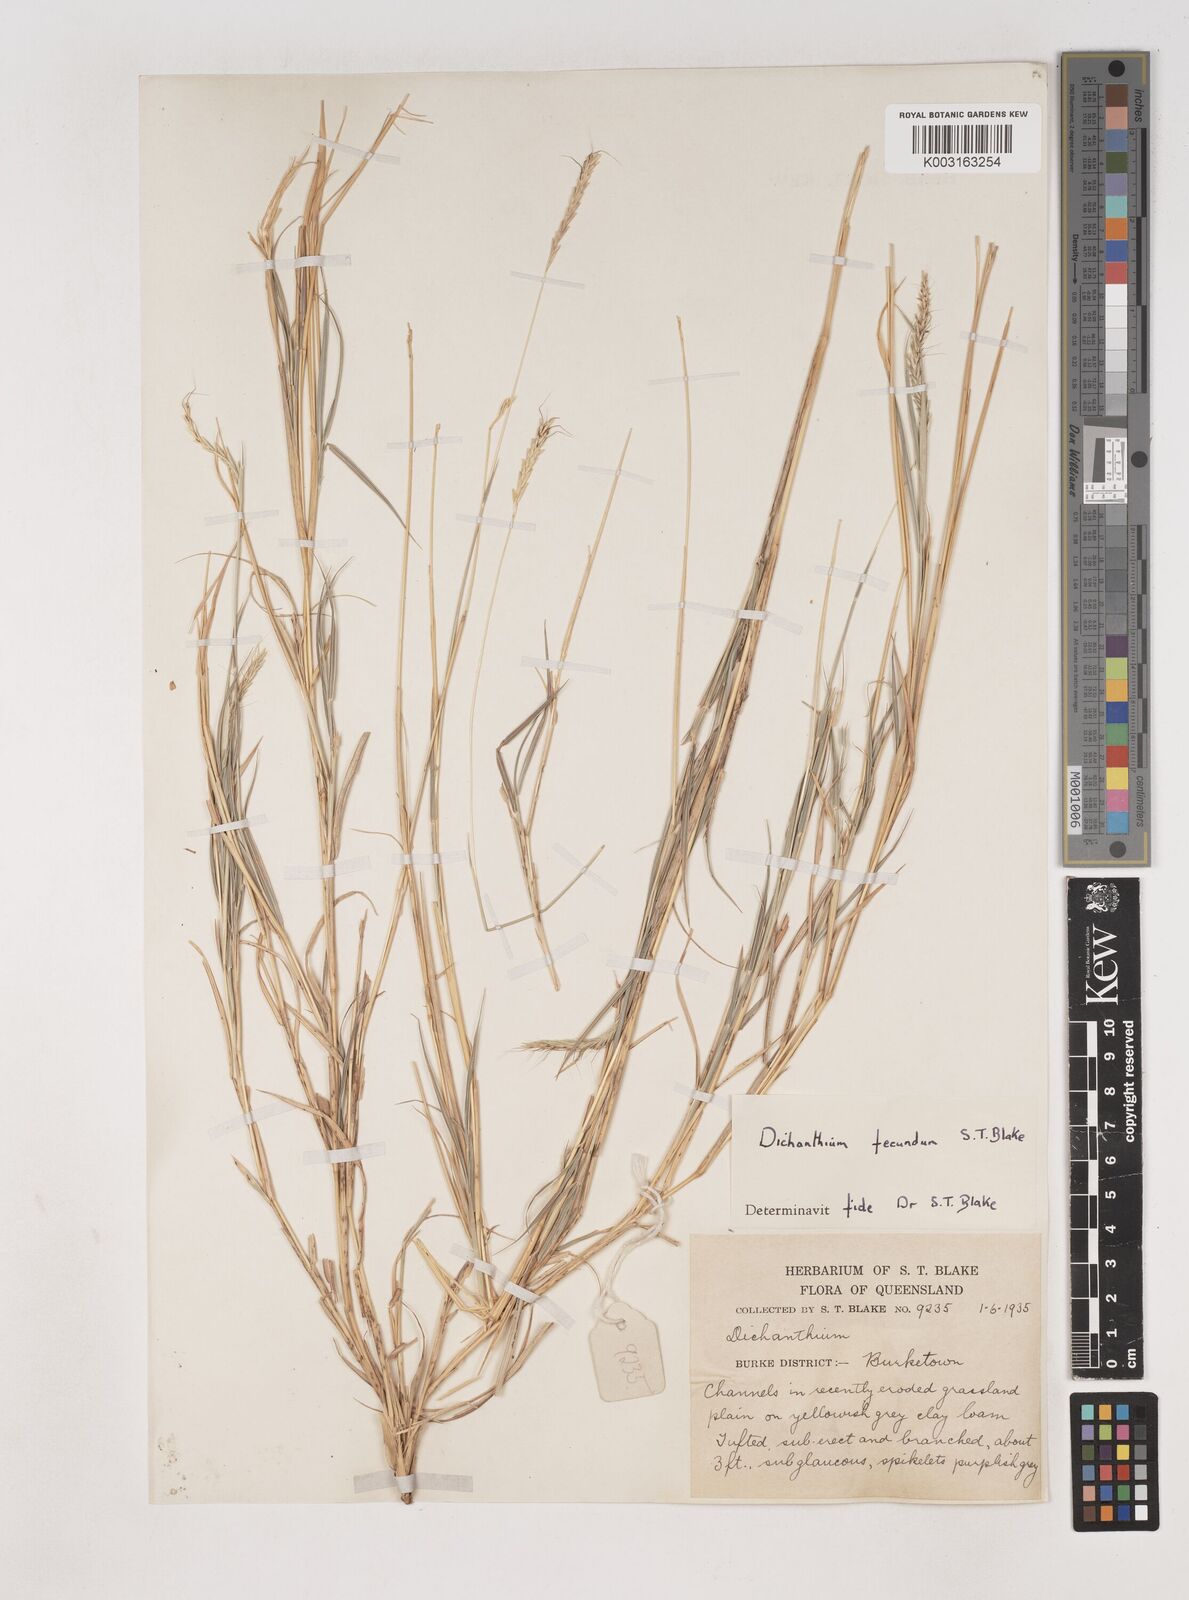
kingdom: Plantae
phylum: Tracheophyta
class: Liliopsida
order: Poales
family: Poaceae
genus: Dichanthium
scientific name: Dichanthium annulatum
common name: Kleberg's bluestem
